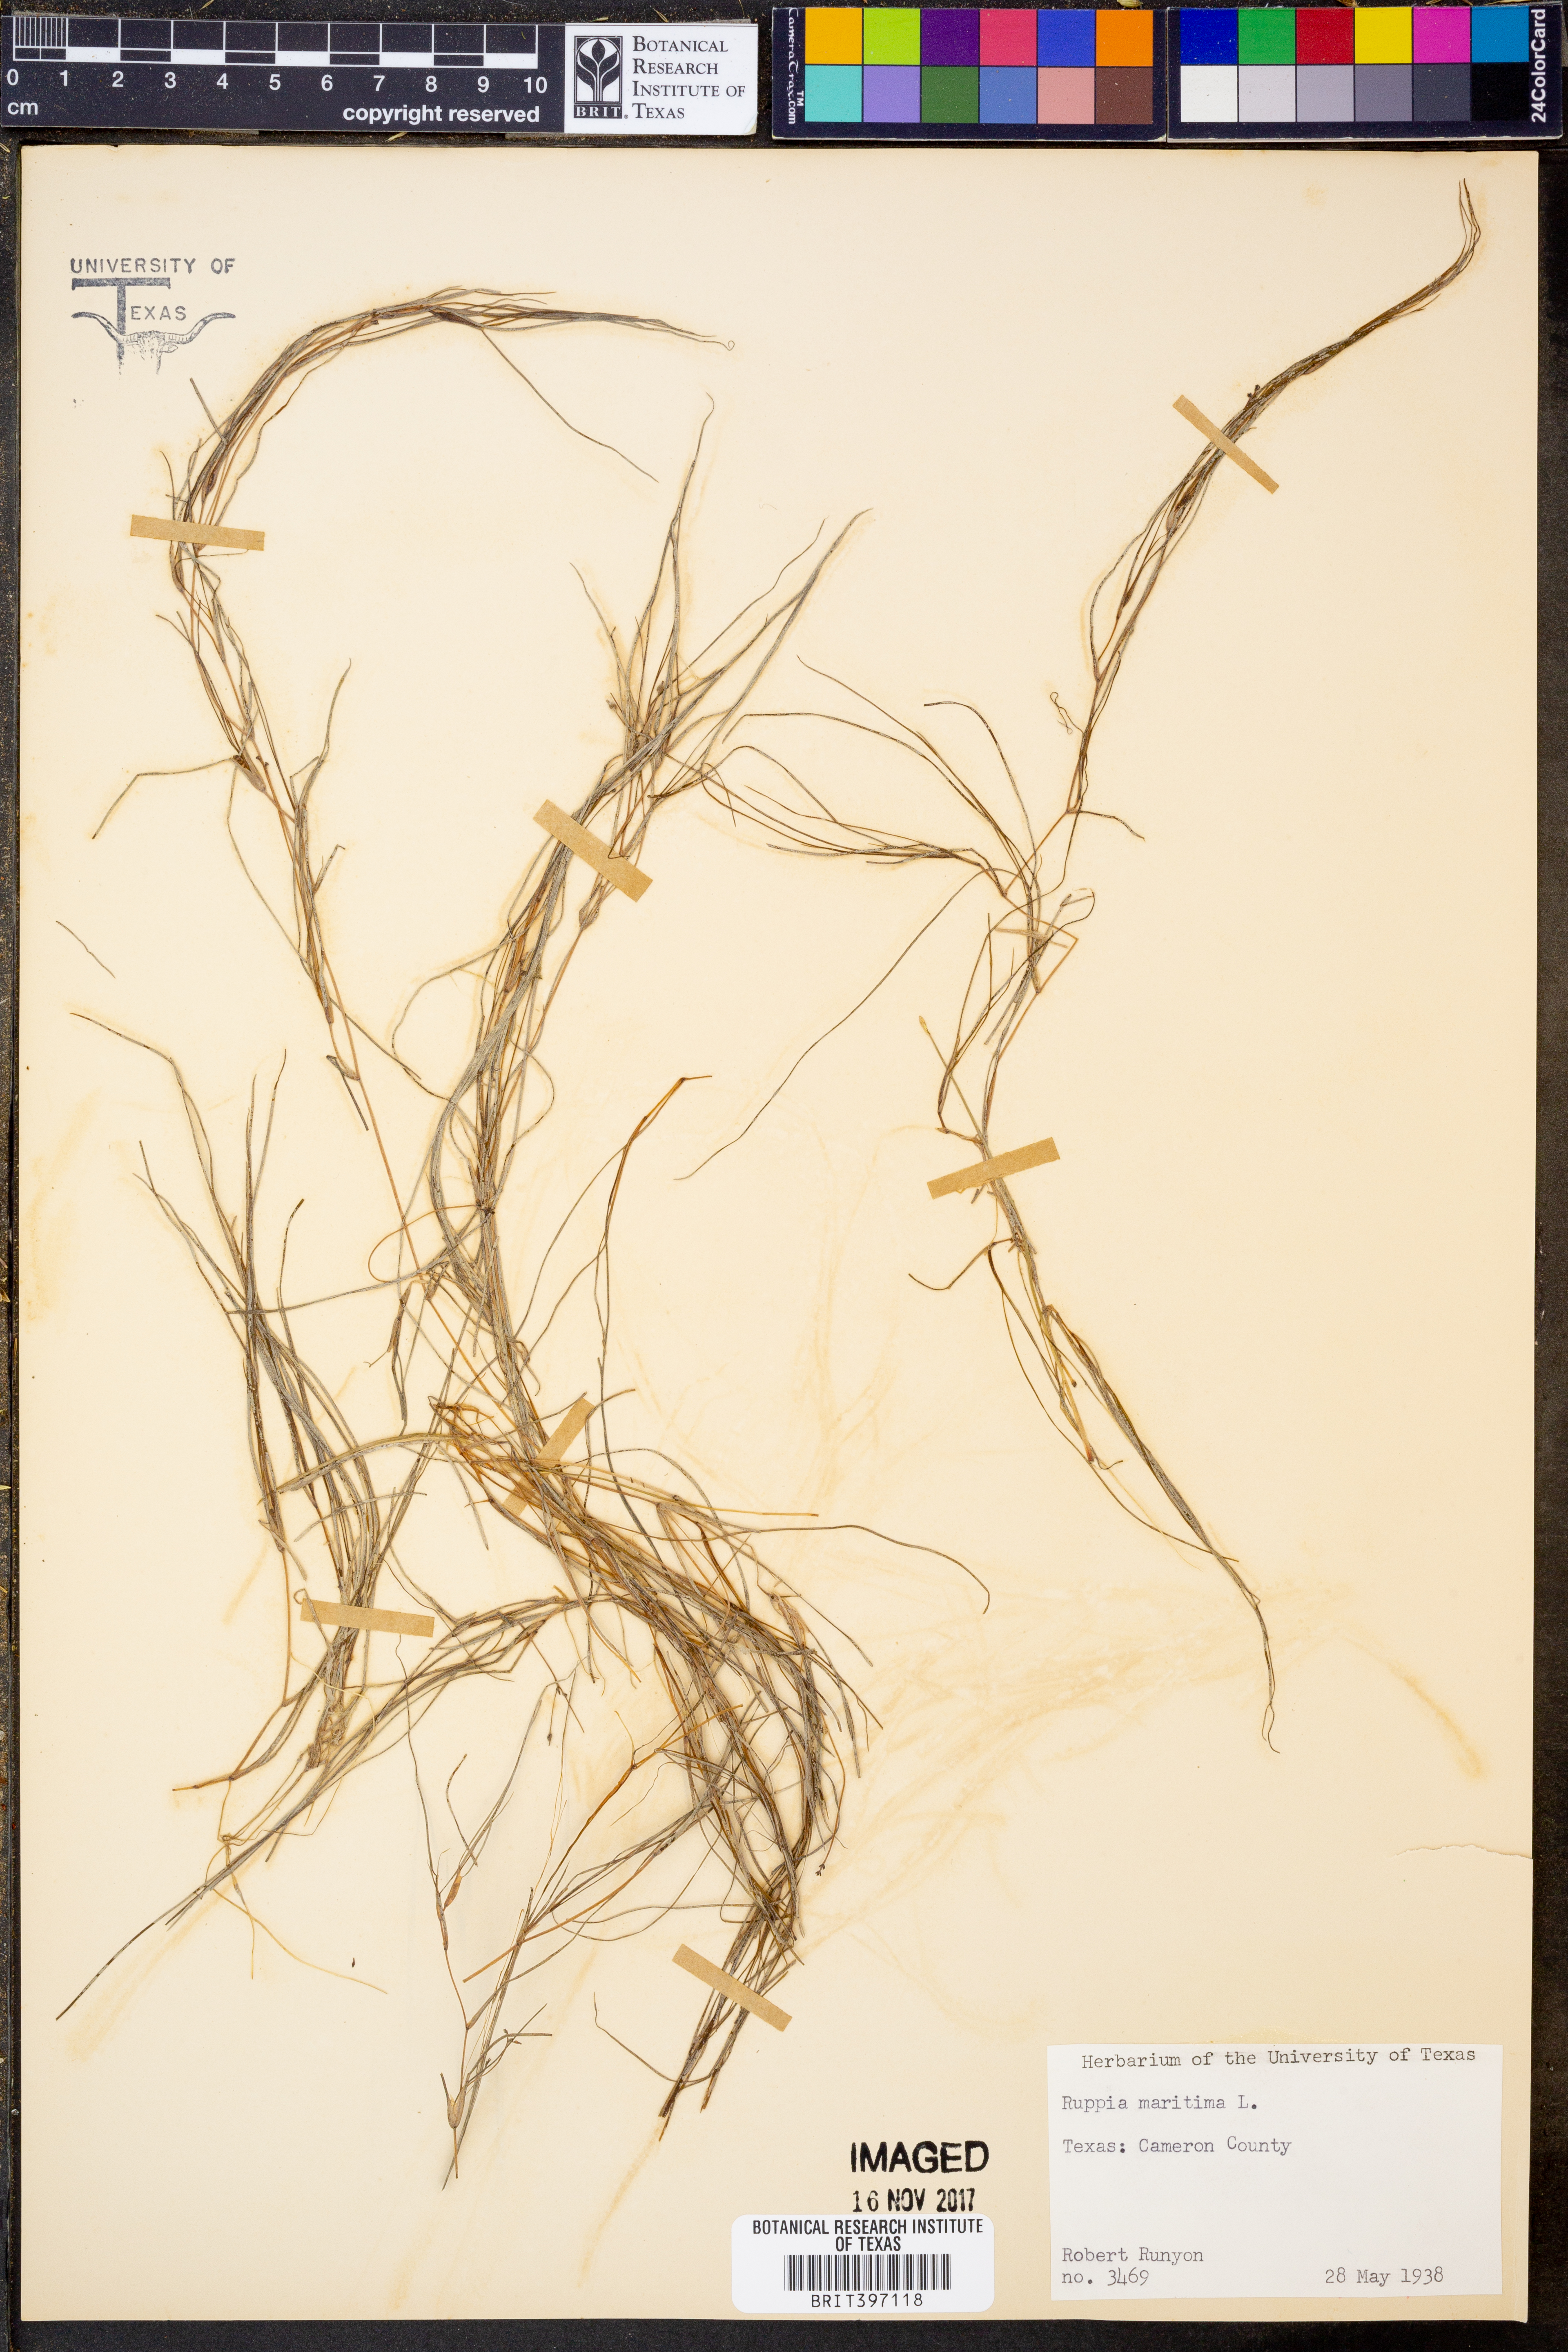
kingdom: Plantae
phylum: Tracheophyta
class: Liliopsida
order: Alismatales
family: Ruppiaceae
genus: Ruppia
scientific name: Ruppia maritima
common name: Beaked tasselweed
